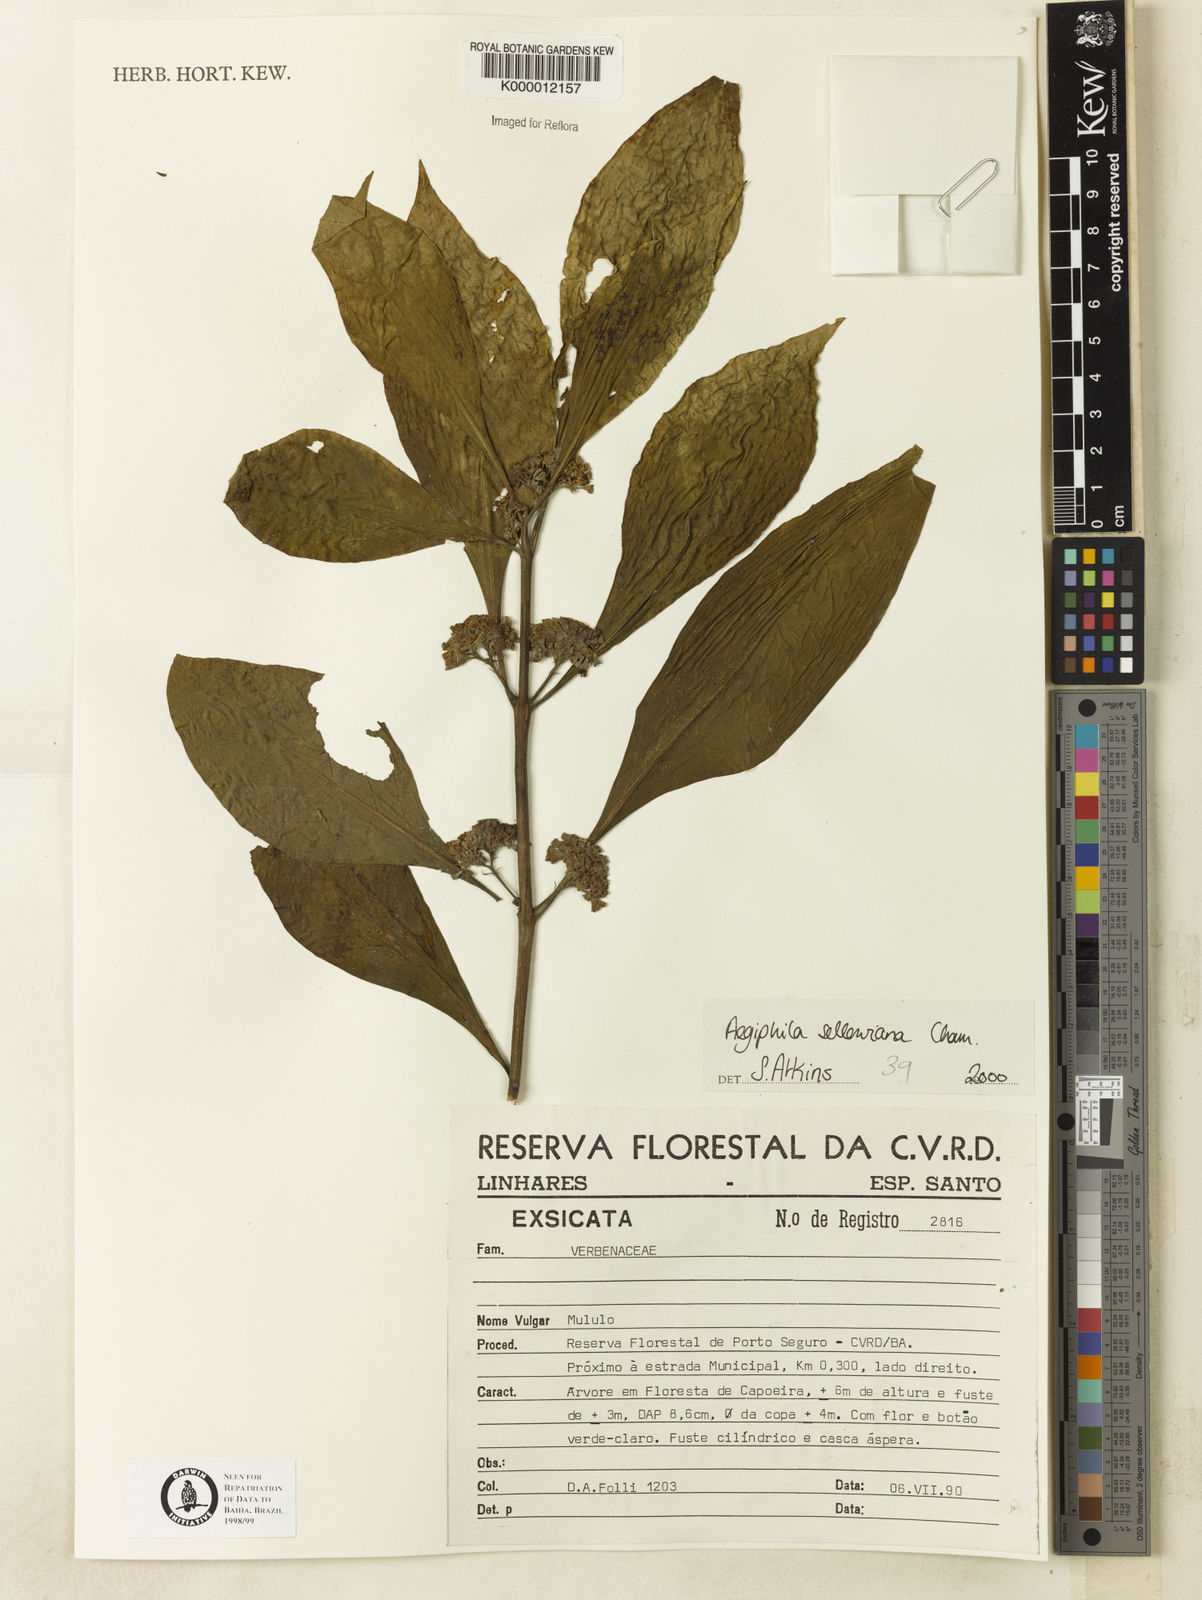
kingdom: Plantae
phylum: Tracheophyta
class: Magnoliopsida
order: Lamiales
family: Lamiaceae
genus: Aegiphila
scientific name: Aegiphila verticillata
